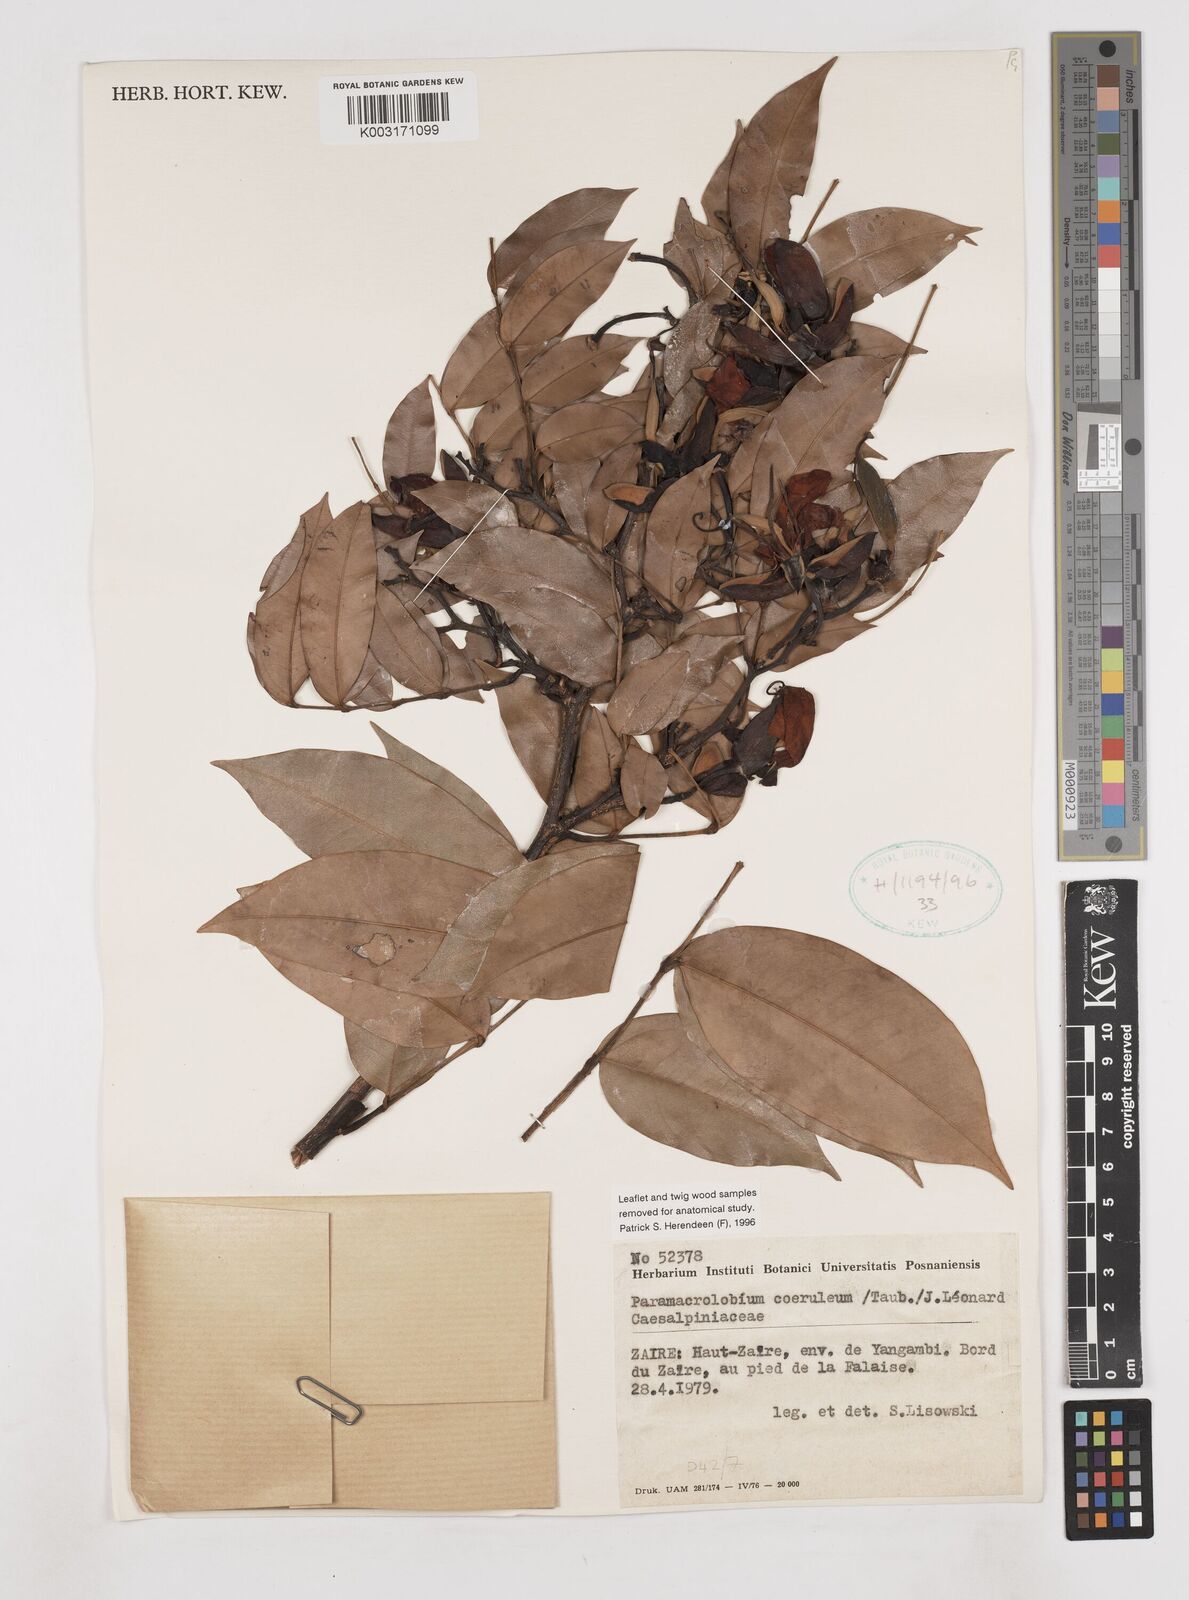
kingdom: Plantae
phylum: Tracheophyta
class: Magnoliopsida
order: Fabales
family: Fabaceae
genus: Paramacrolobium
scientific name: Paramacrolobium coeruleum
